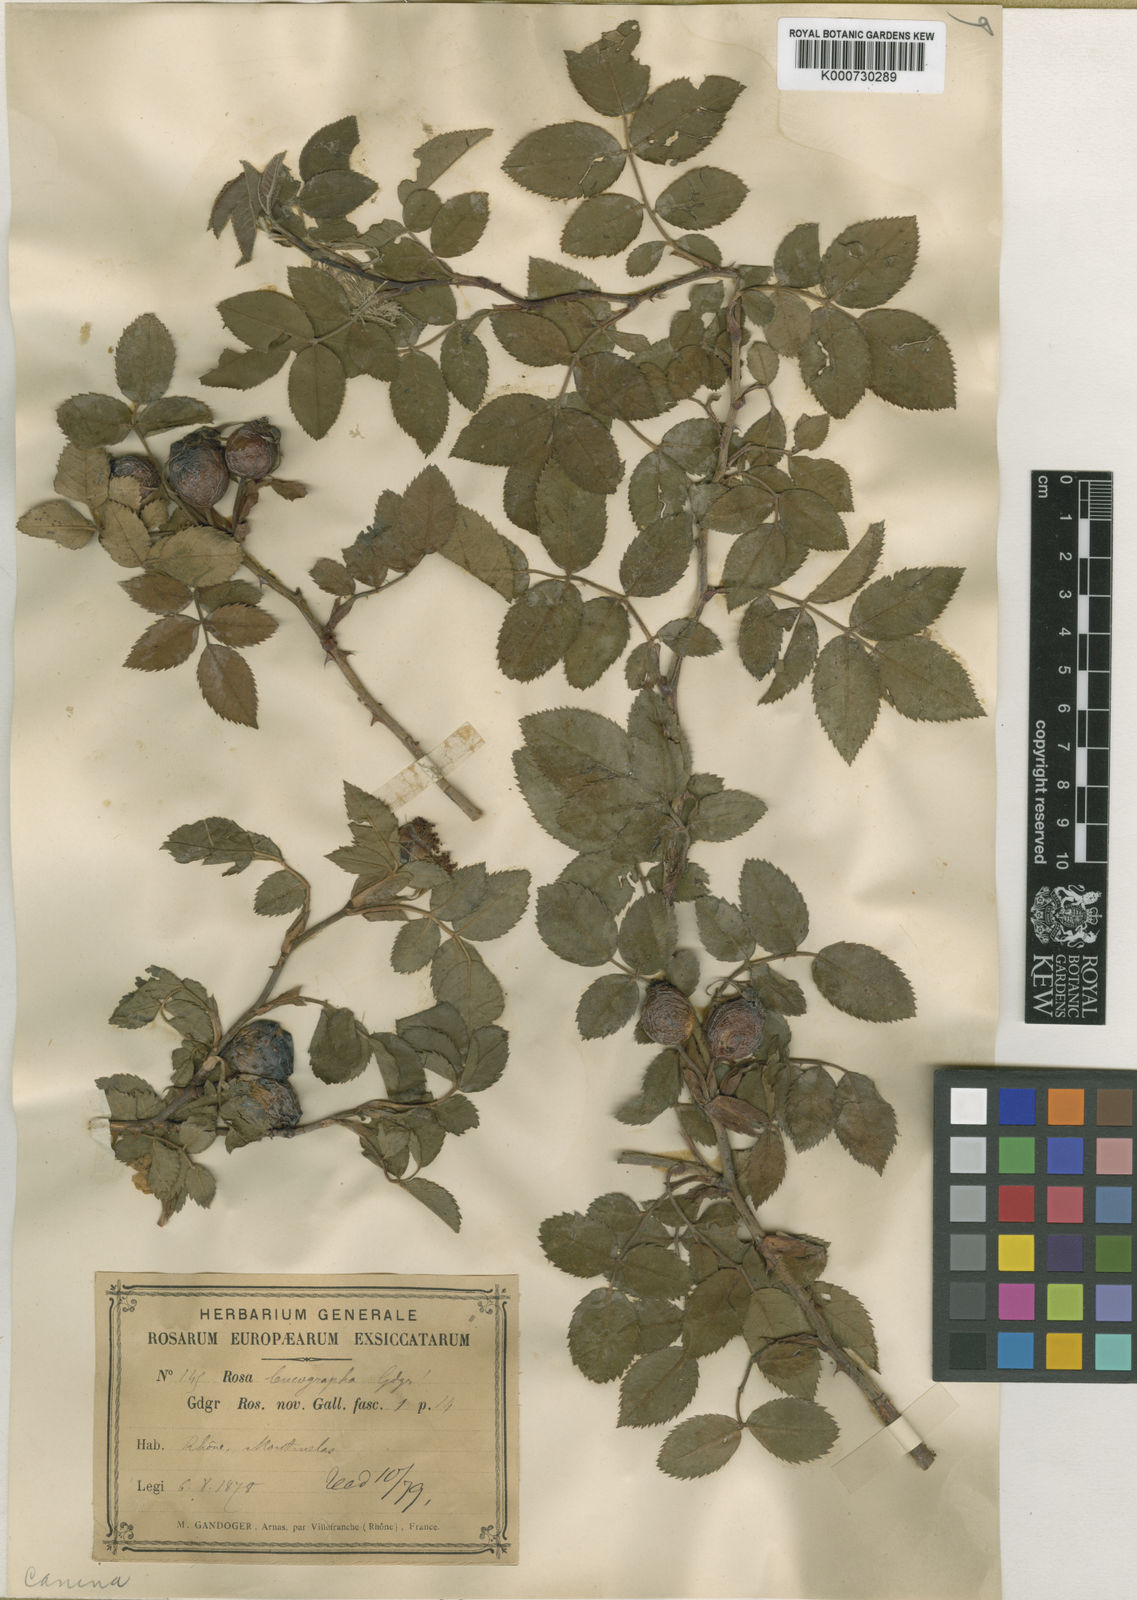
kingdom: Plantae
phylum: Tracheophyta
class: Magnoliopsida
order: Rosales
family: Rosaceae
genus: Rosa
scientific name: Rosa canina
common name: Dog rose
